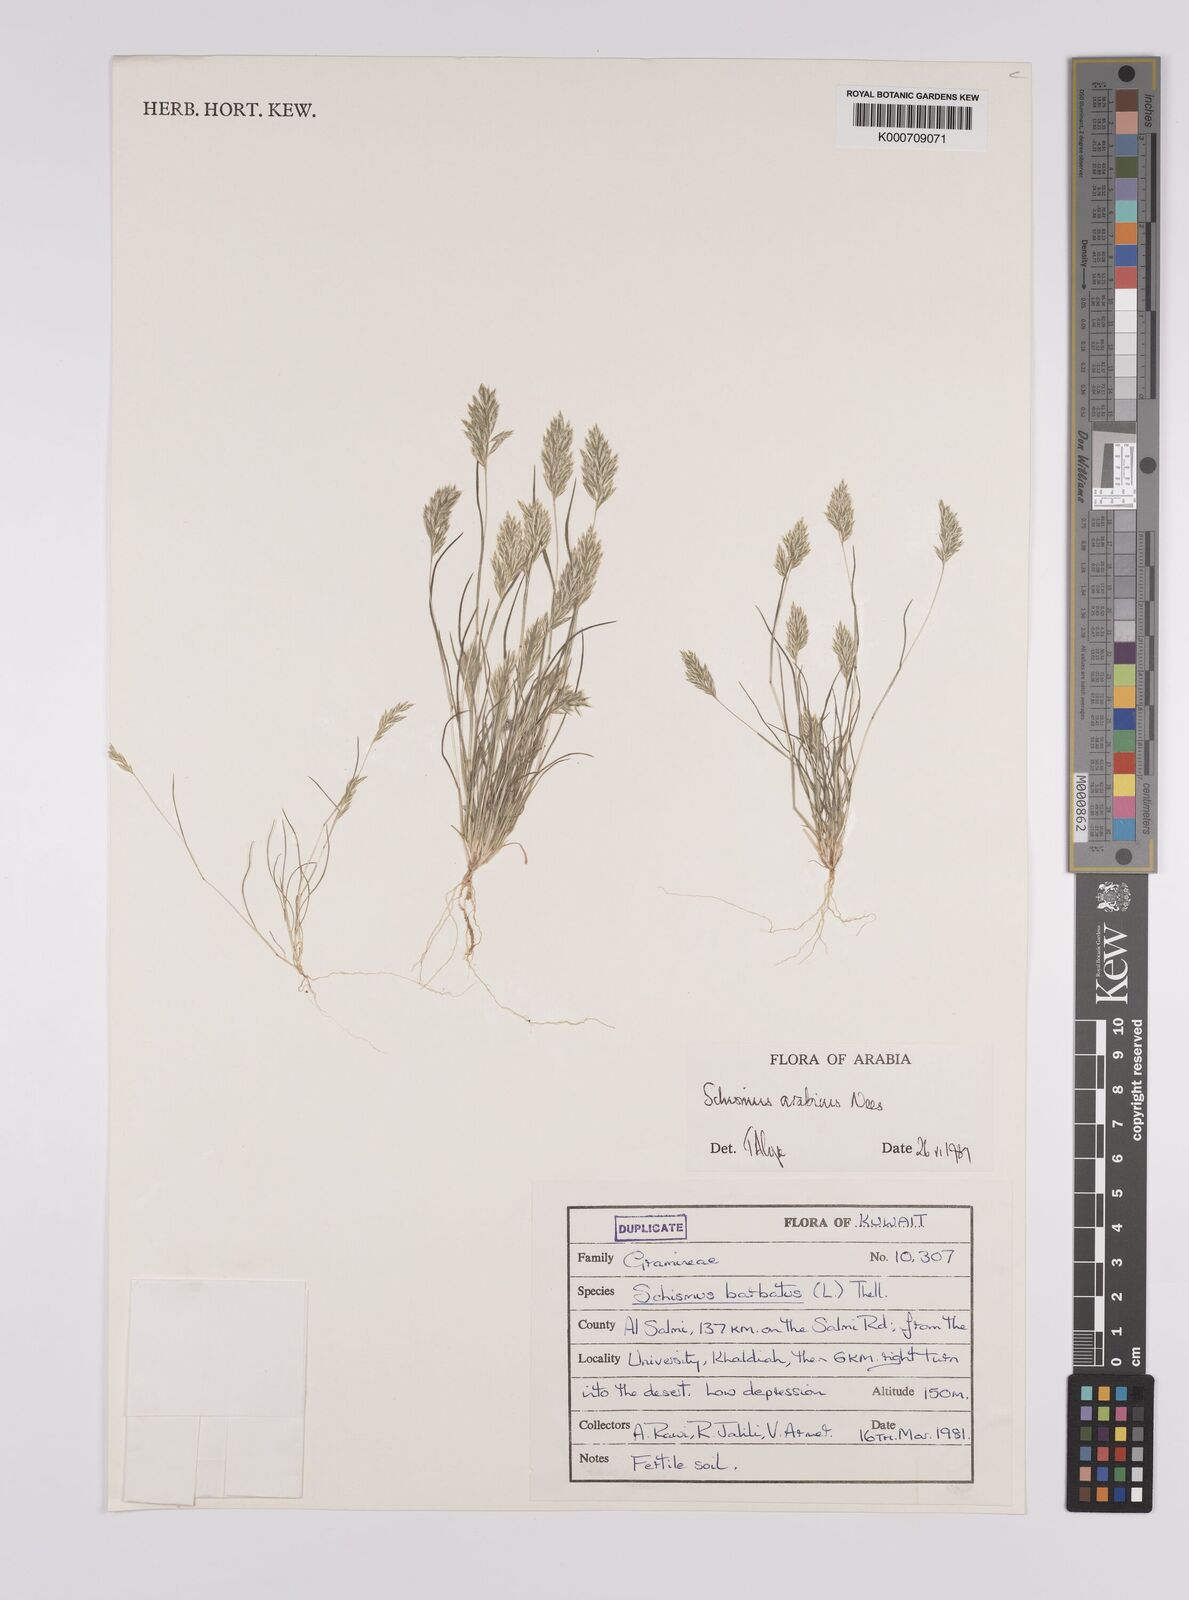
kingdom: Plantae
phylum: Tracheophyta
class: Liliopsida
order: Poales
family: Poaceae
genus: Schismus
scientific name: Schismus arabicus
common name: Arabian schismus
